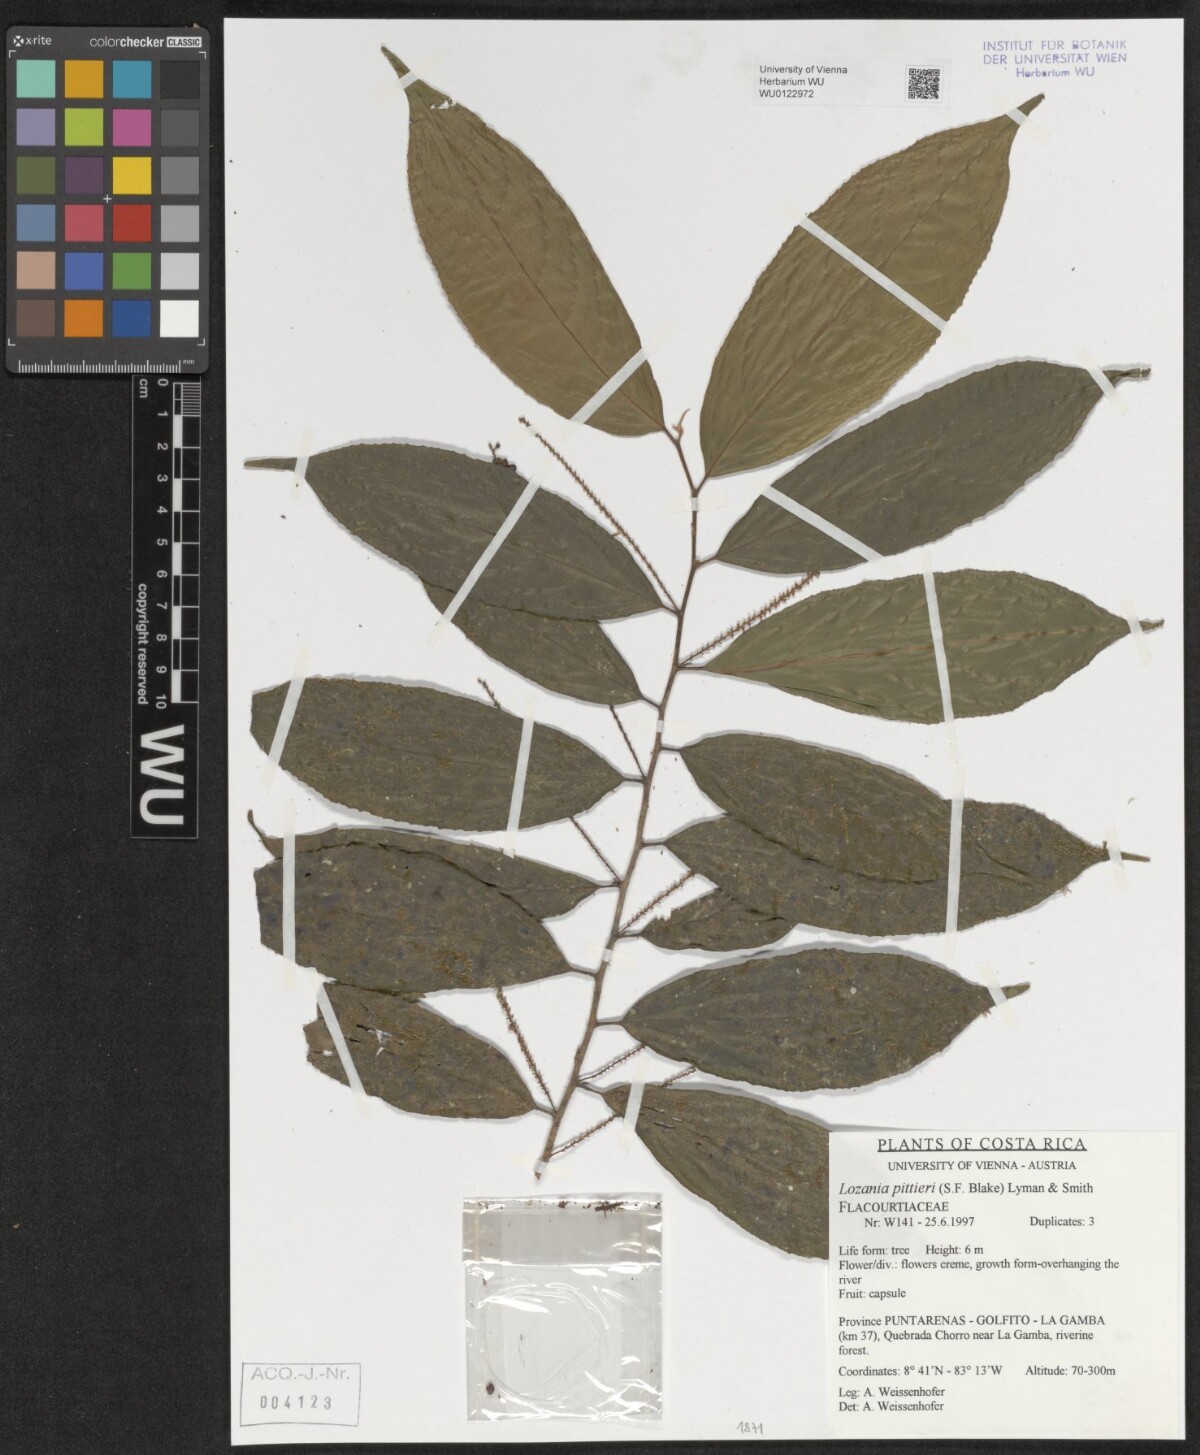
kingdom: Plantae
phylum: Tracheophyta
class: Magnoliopsida
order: Malpighiales
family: Lacistemataceae
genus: Lozania
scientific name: Lozania pittieri
